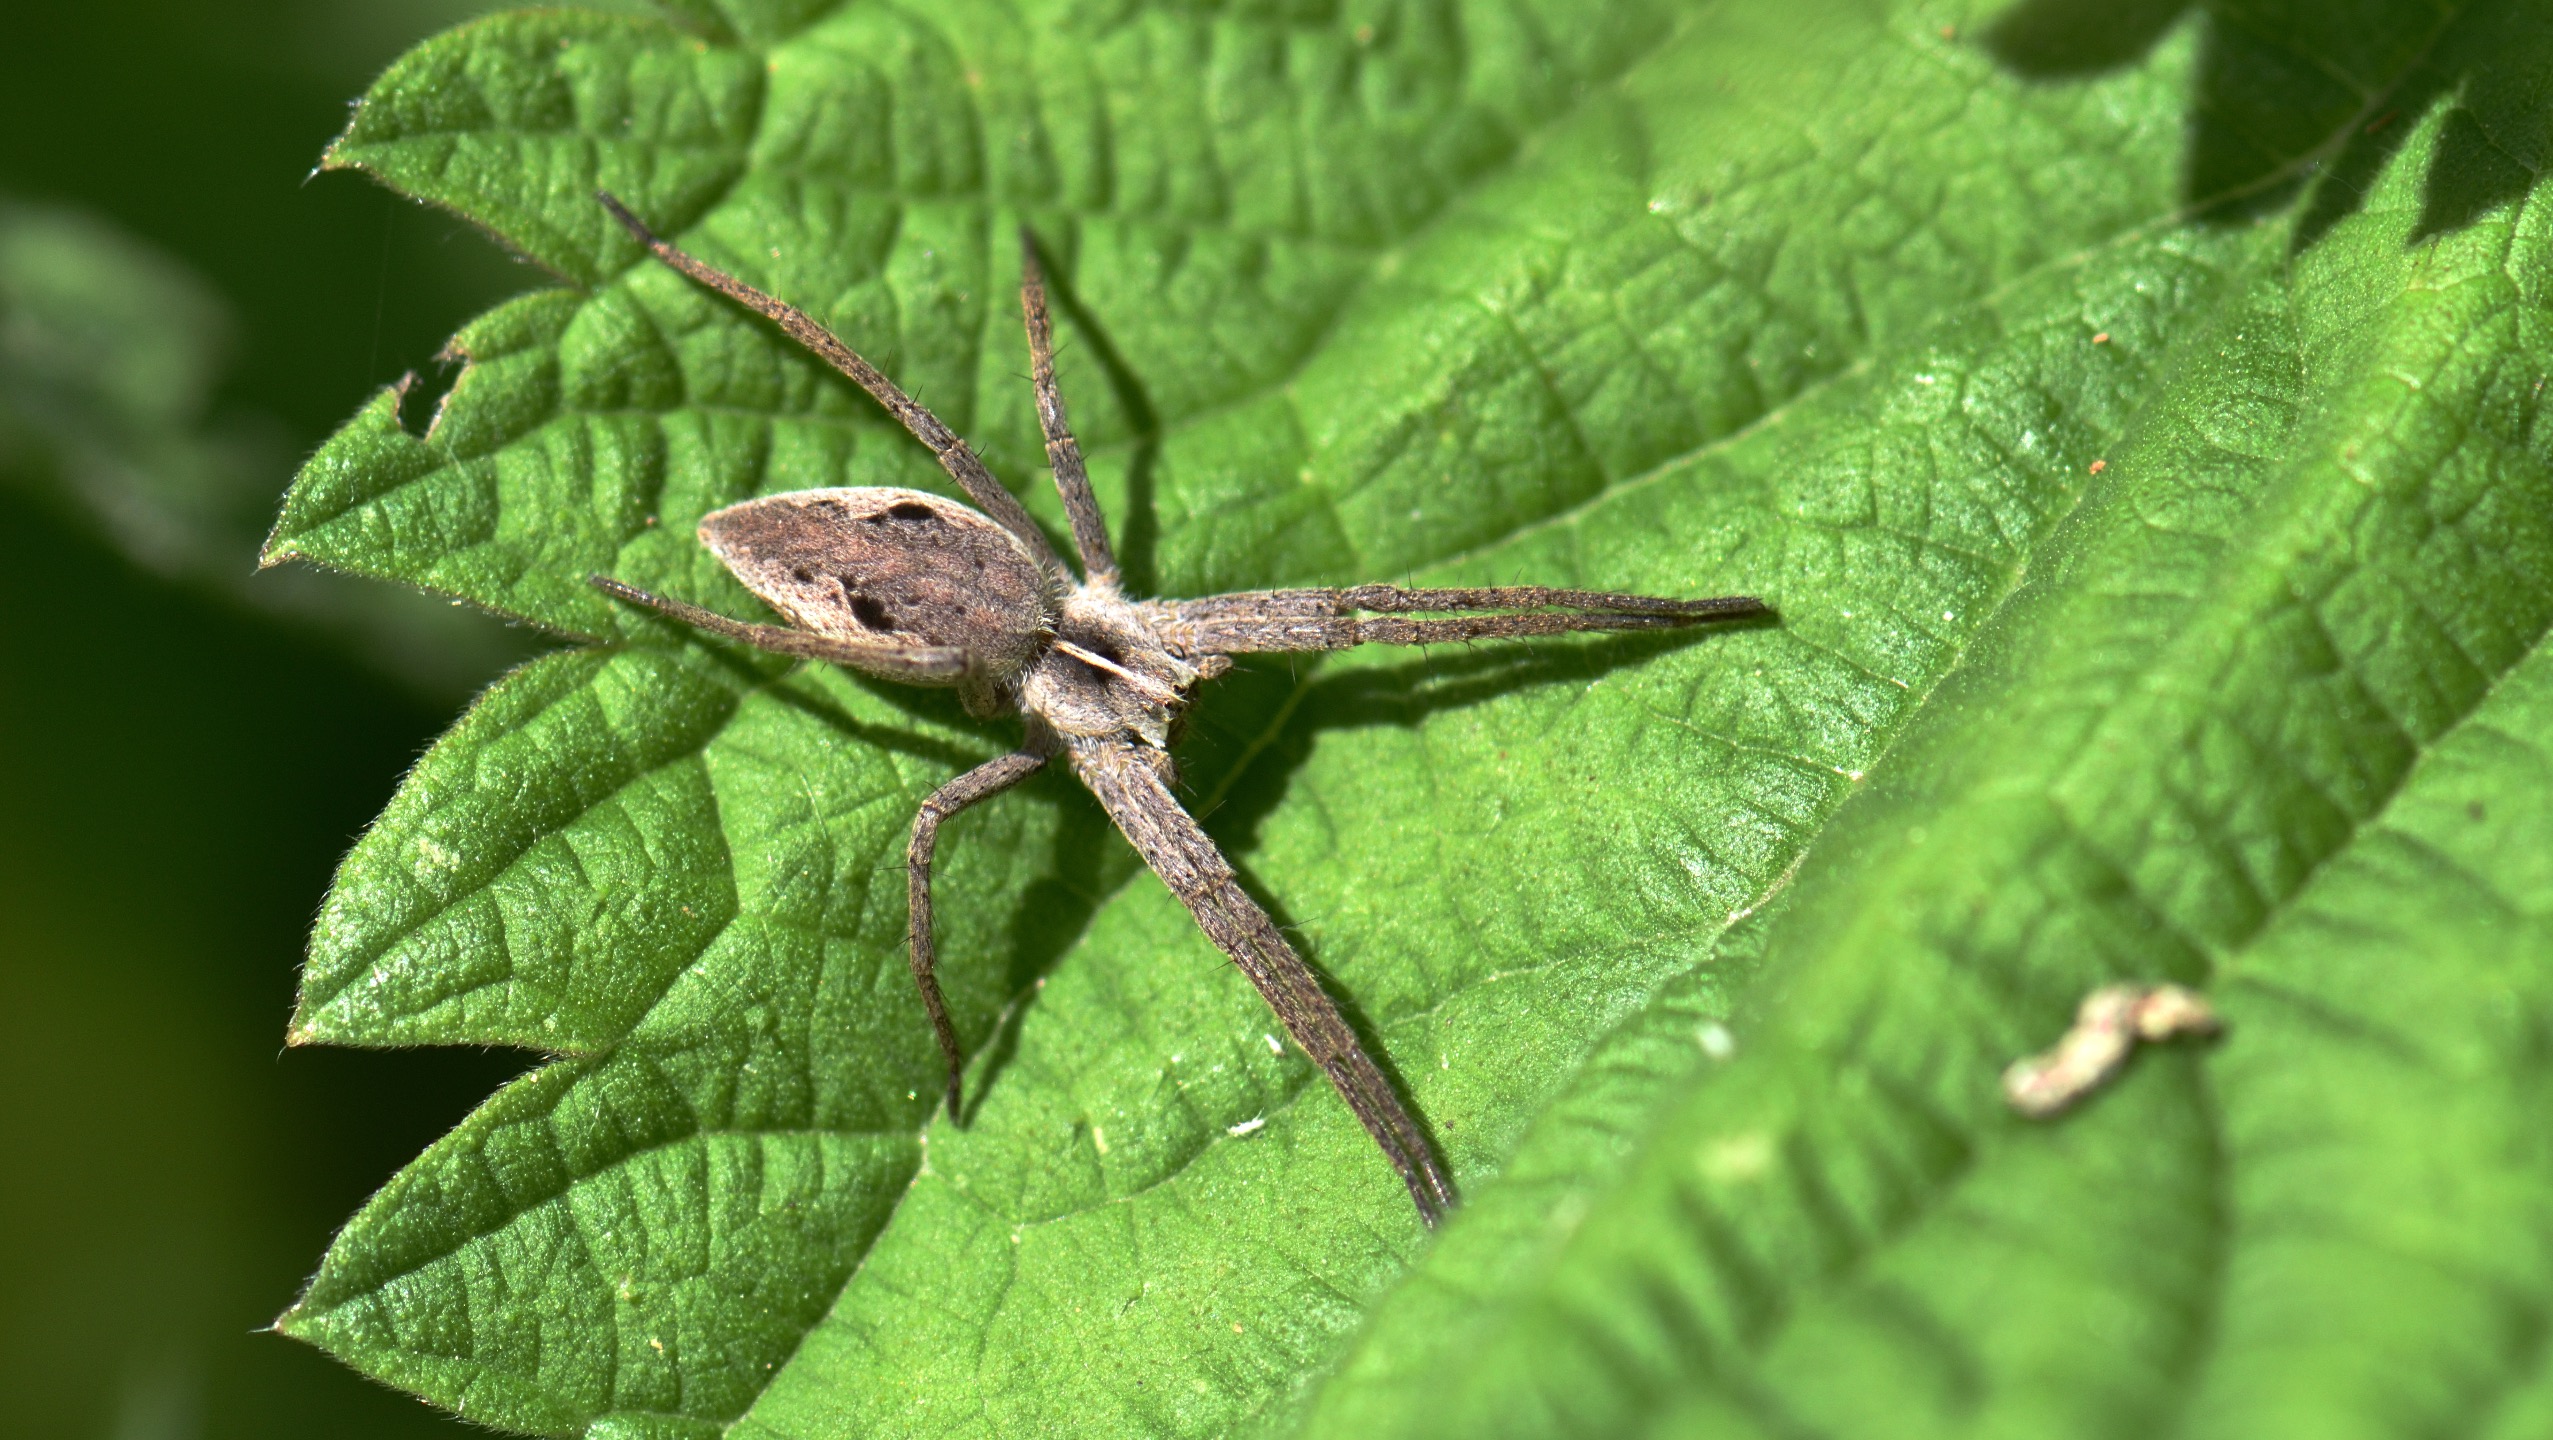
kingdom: Animalia
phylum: Arthropoda
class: Arachnida
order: Araneae
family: Pisauridae
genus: Pisaura
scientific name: Pisaura mirabilis
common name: Almindelig rovedderkop
